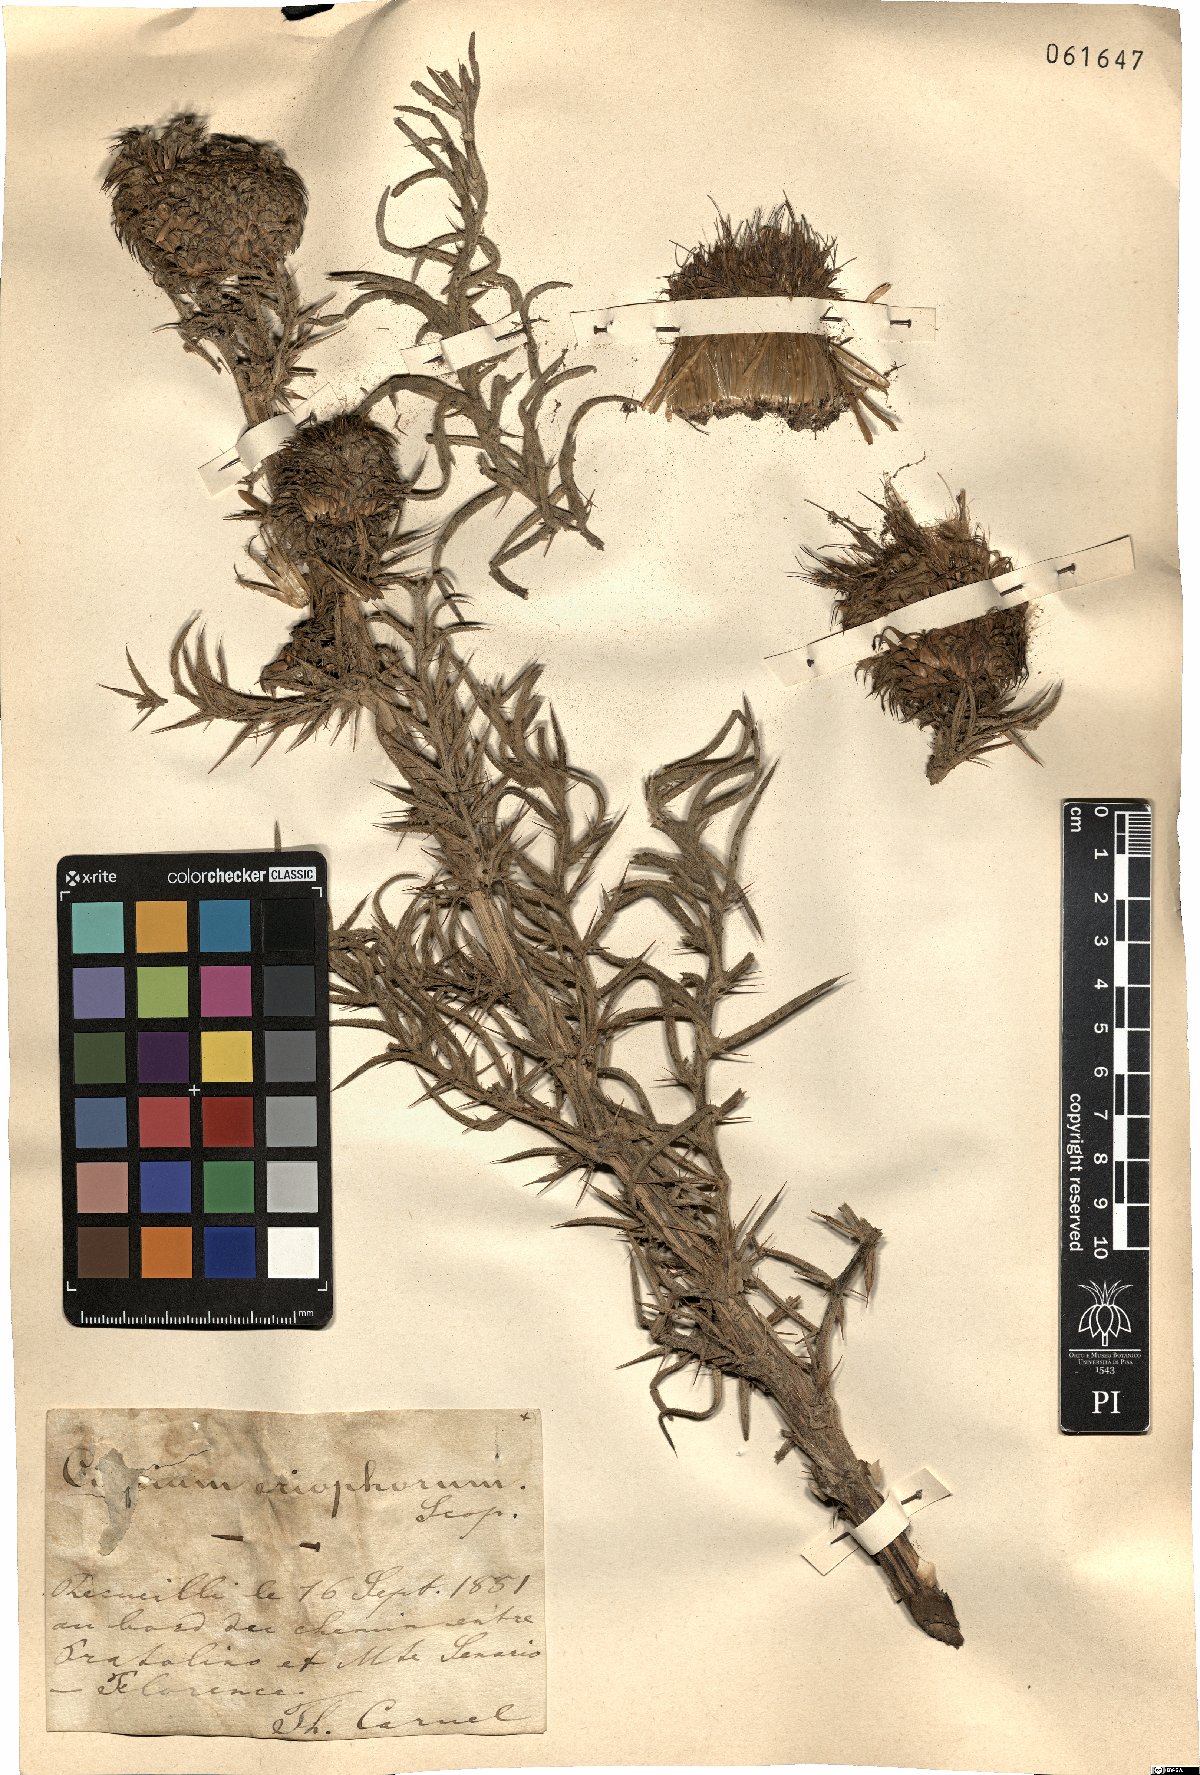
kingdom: Plantae
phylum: Tracheophyta
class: Magnoliopsida
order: Asterales
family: Asteraceae
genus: Lophiolepis
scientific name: Lophiolepis eriophora
